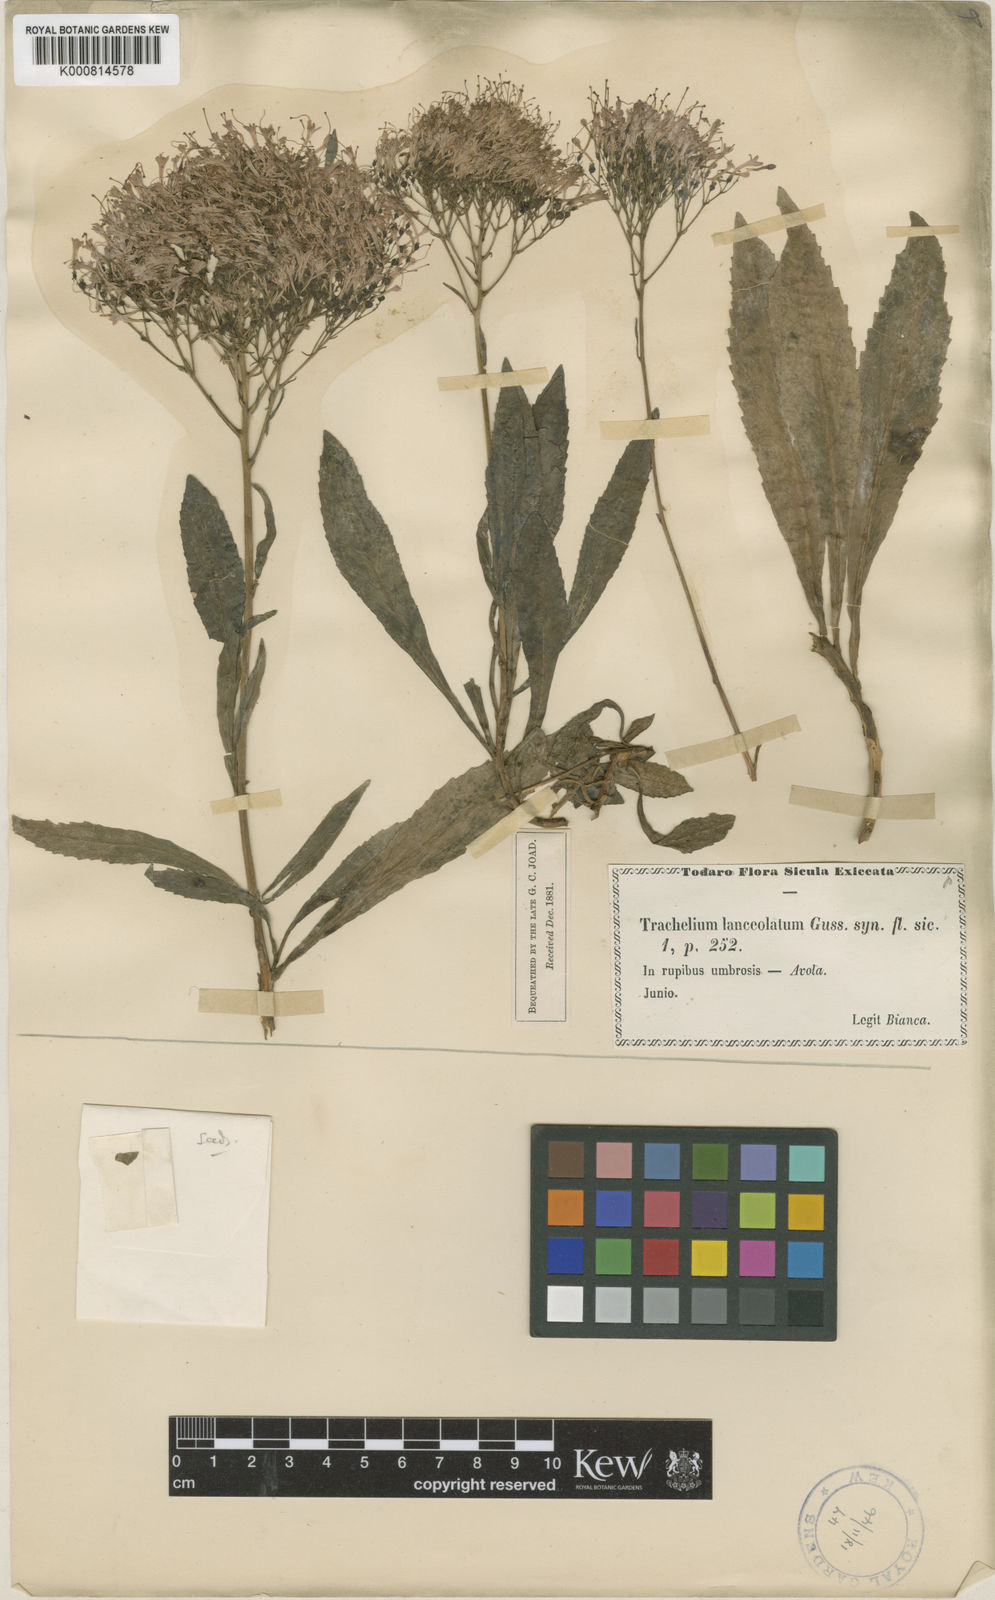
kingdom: Plantae
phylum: Tracheophyta
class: Magnoliopsida
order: Asterales
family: Campanulaceae
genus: Trachelium
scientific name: Trachelium caeruleum
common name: Throatwort
